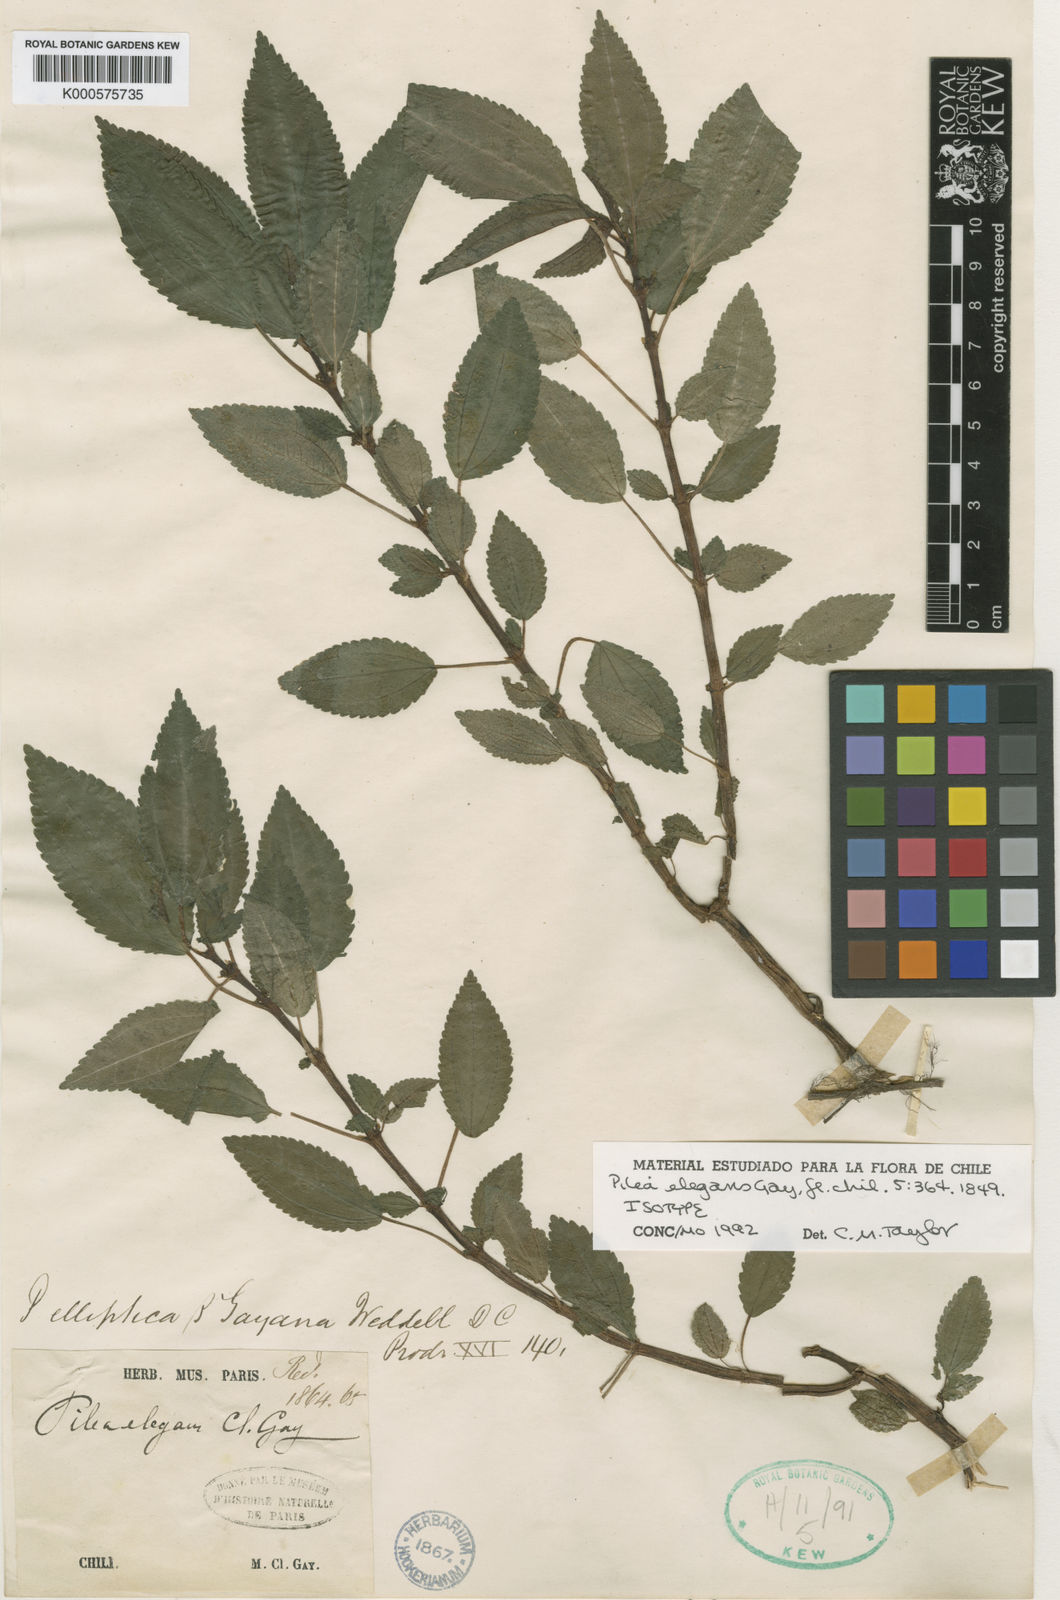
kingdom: Plantae
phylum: Tracheophyta
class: Magnoliopsida
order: Rosales
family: Urticaceae
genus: Pilea
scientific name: Pilea elegans
